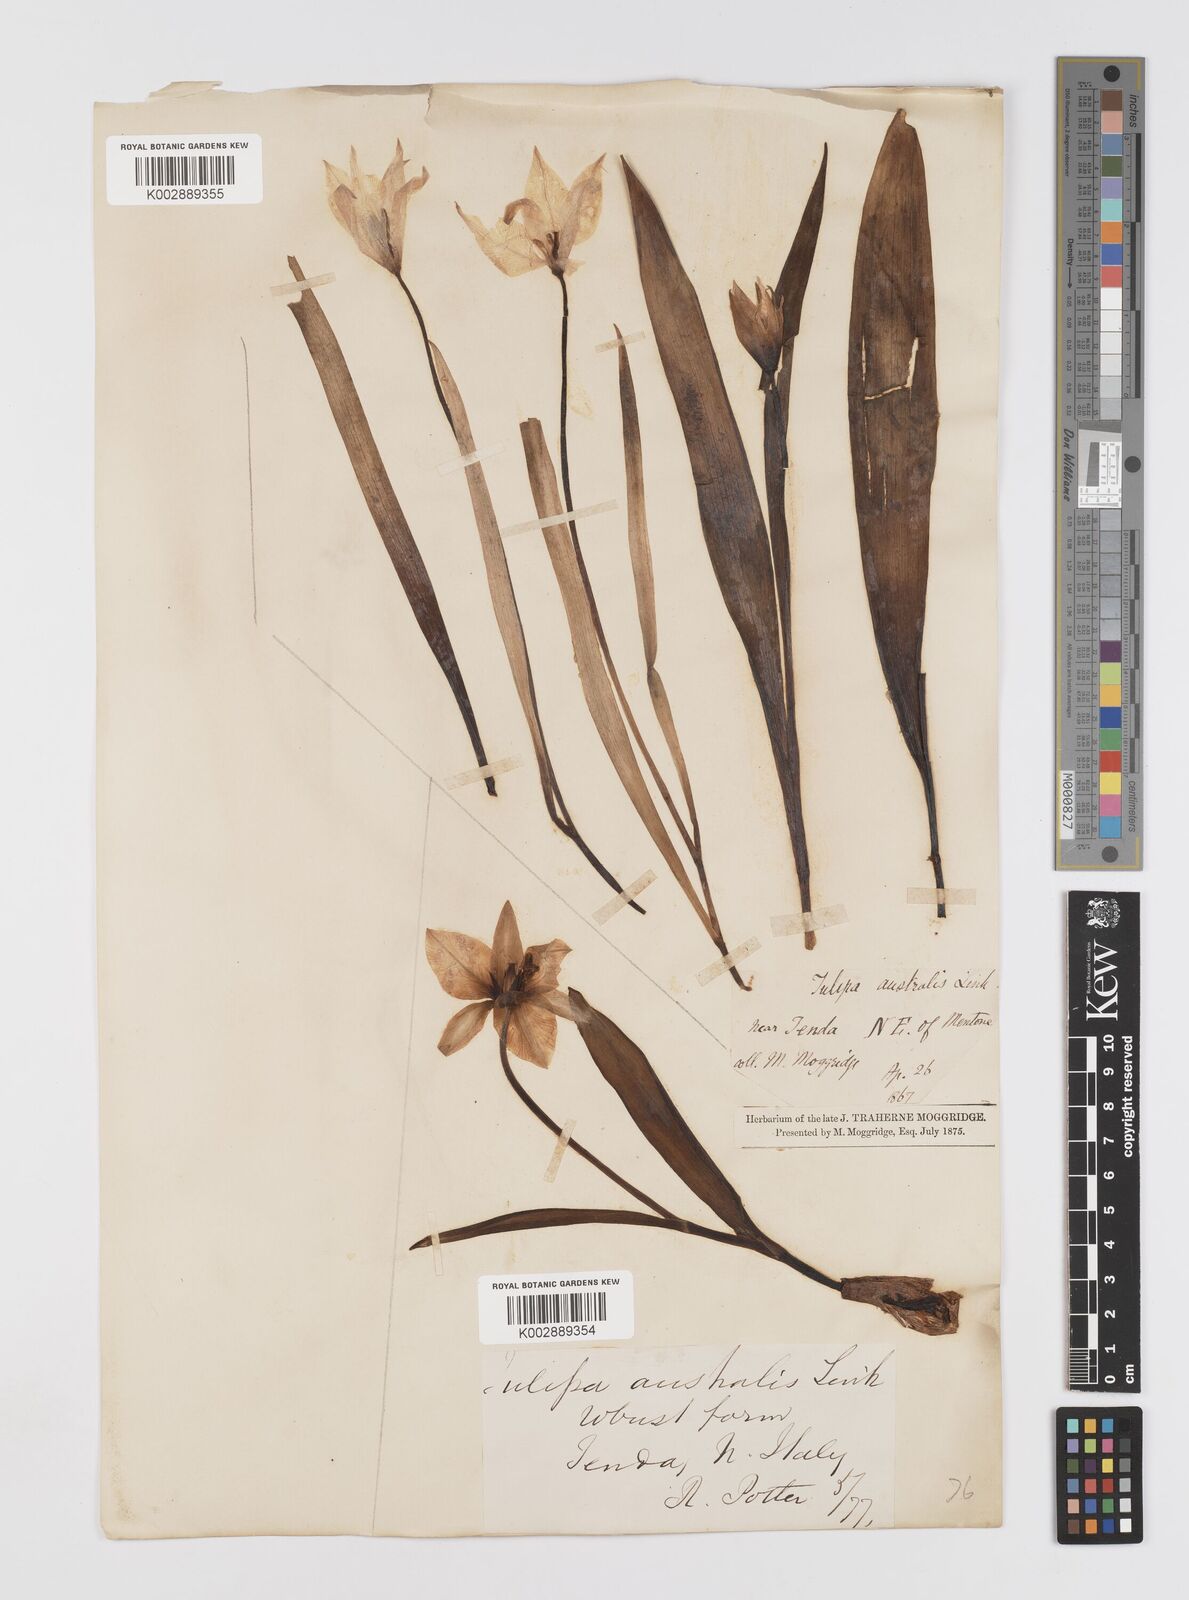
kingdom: Plantae
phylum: Tracheophyta
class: Liliopsida
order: Liliales
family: Liliaceae
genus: Tulipa
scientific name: Tulipa sylvestris
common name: Wild tulip
